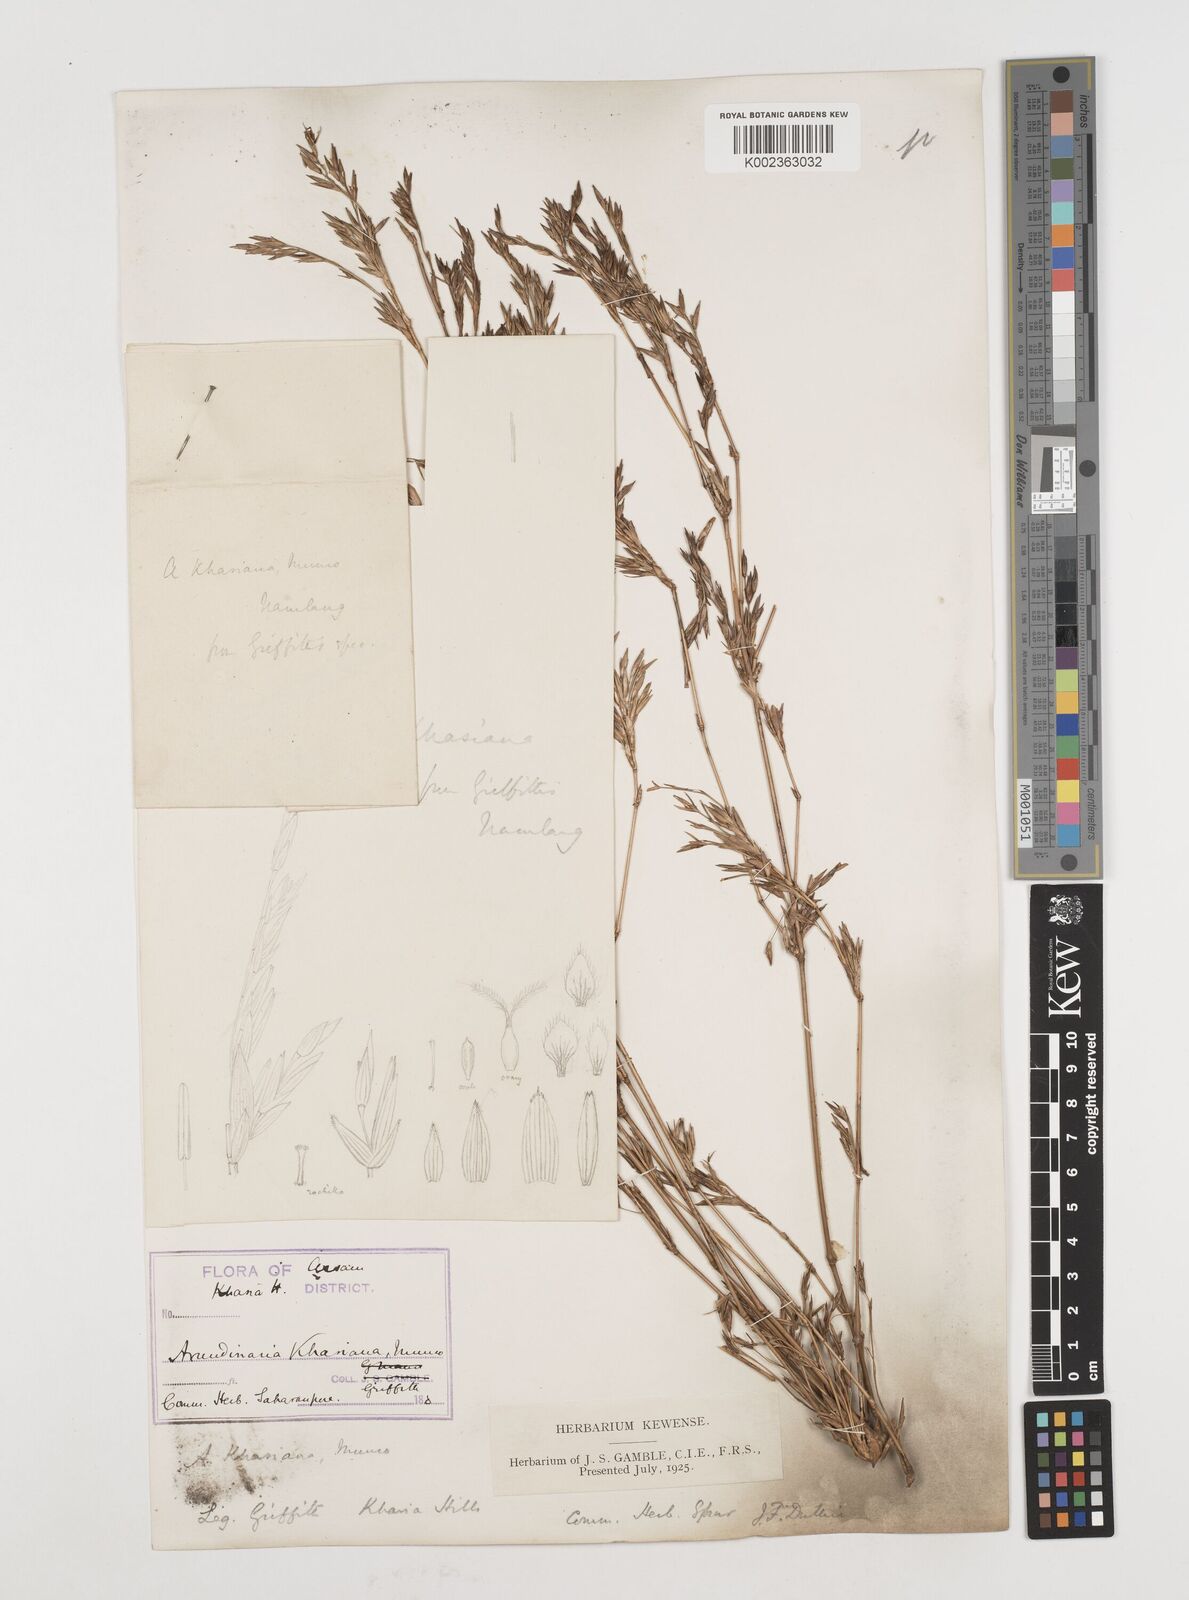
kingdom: Plantae
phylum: Tracheophyta
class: Liliopsida
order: Poales
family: Poaceae
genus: Drepanostachyum
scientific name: Drepanostachyum khasianum
